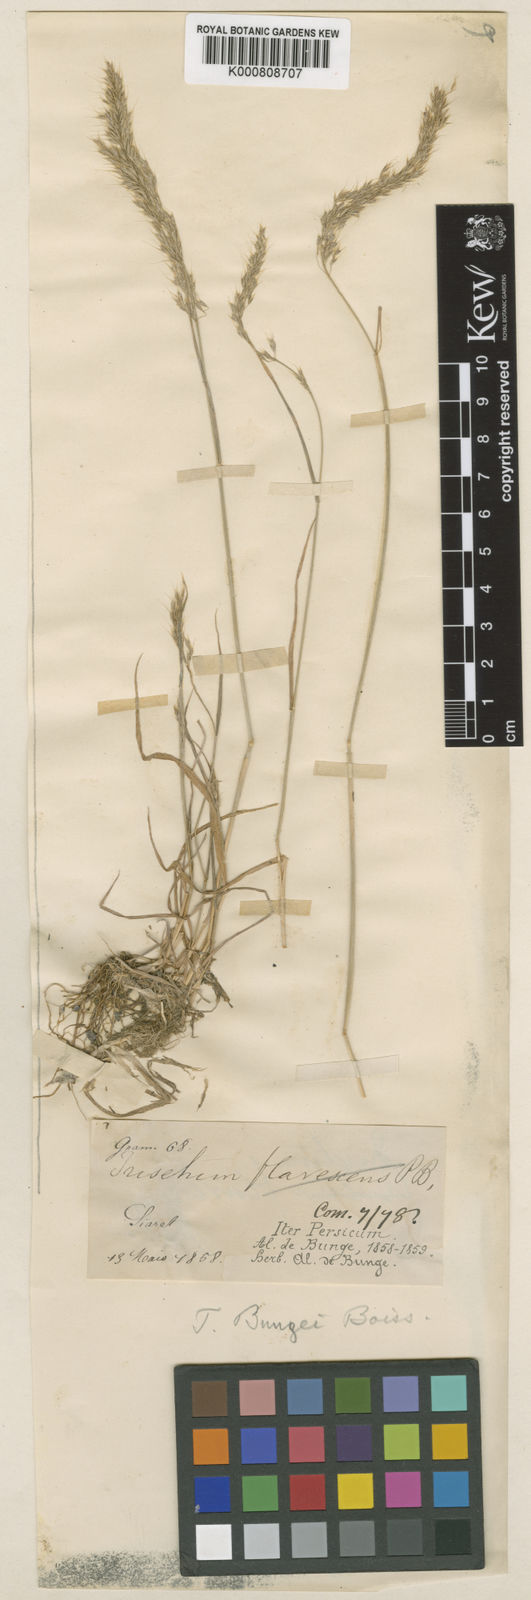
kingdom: Plantae
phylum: Tracheophyta
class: Liliopsida
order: Poales
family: Poaceae
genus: Trisetum
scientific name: Trisetum flavescens
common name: Yellow oat-grass
